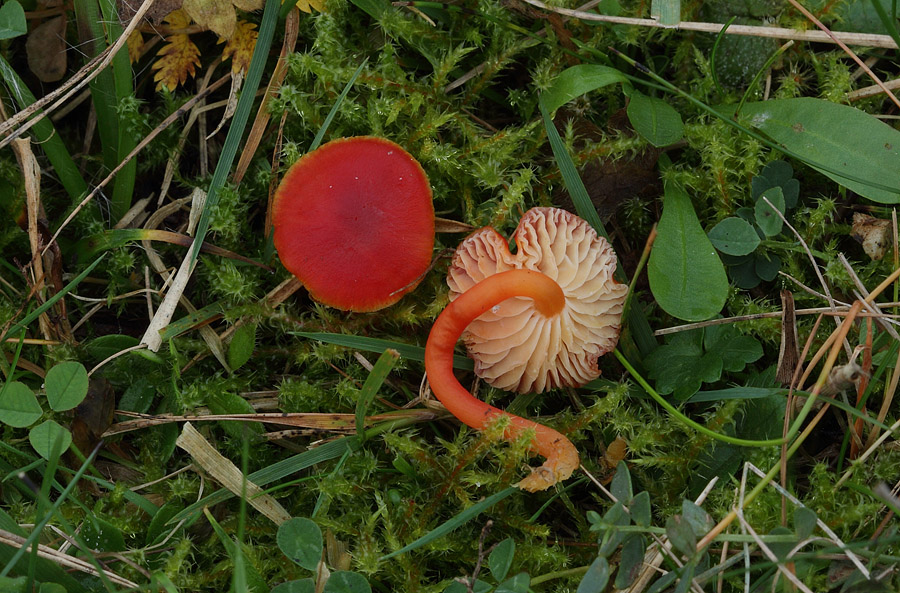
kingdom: Fungi
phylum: Basidiomycota
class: Agaricomycetes
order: Agaricales
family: Hygrophoraceae
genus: Hygrocybe
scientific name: Hygrocybe phaeococcinea
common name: sortdugget vokshat
